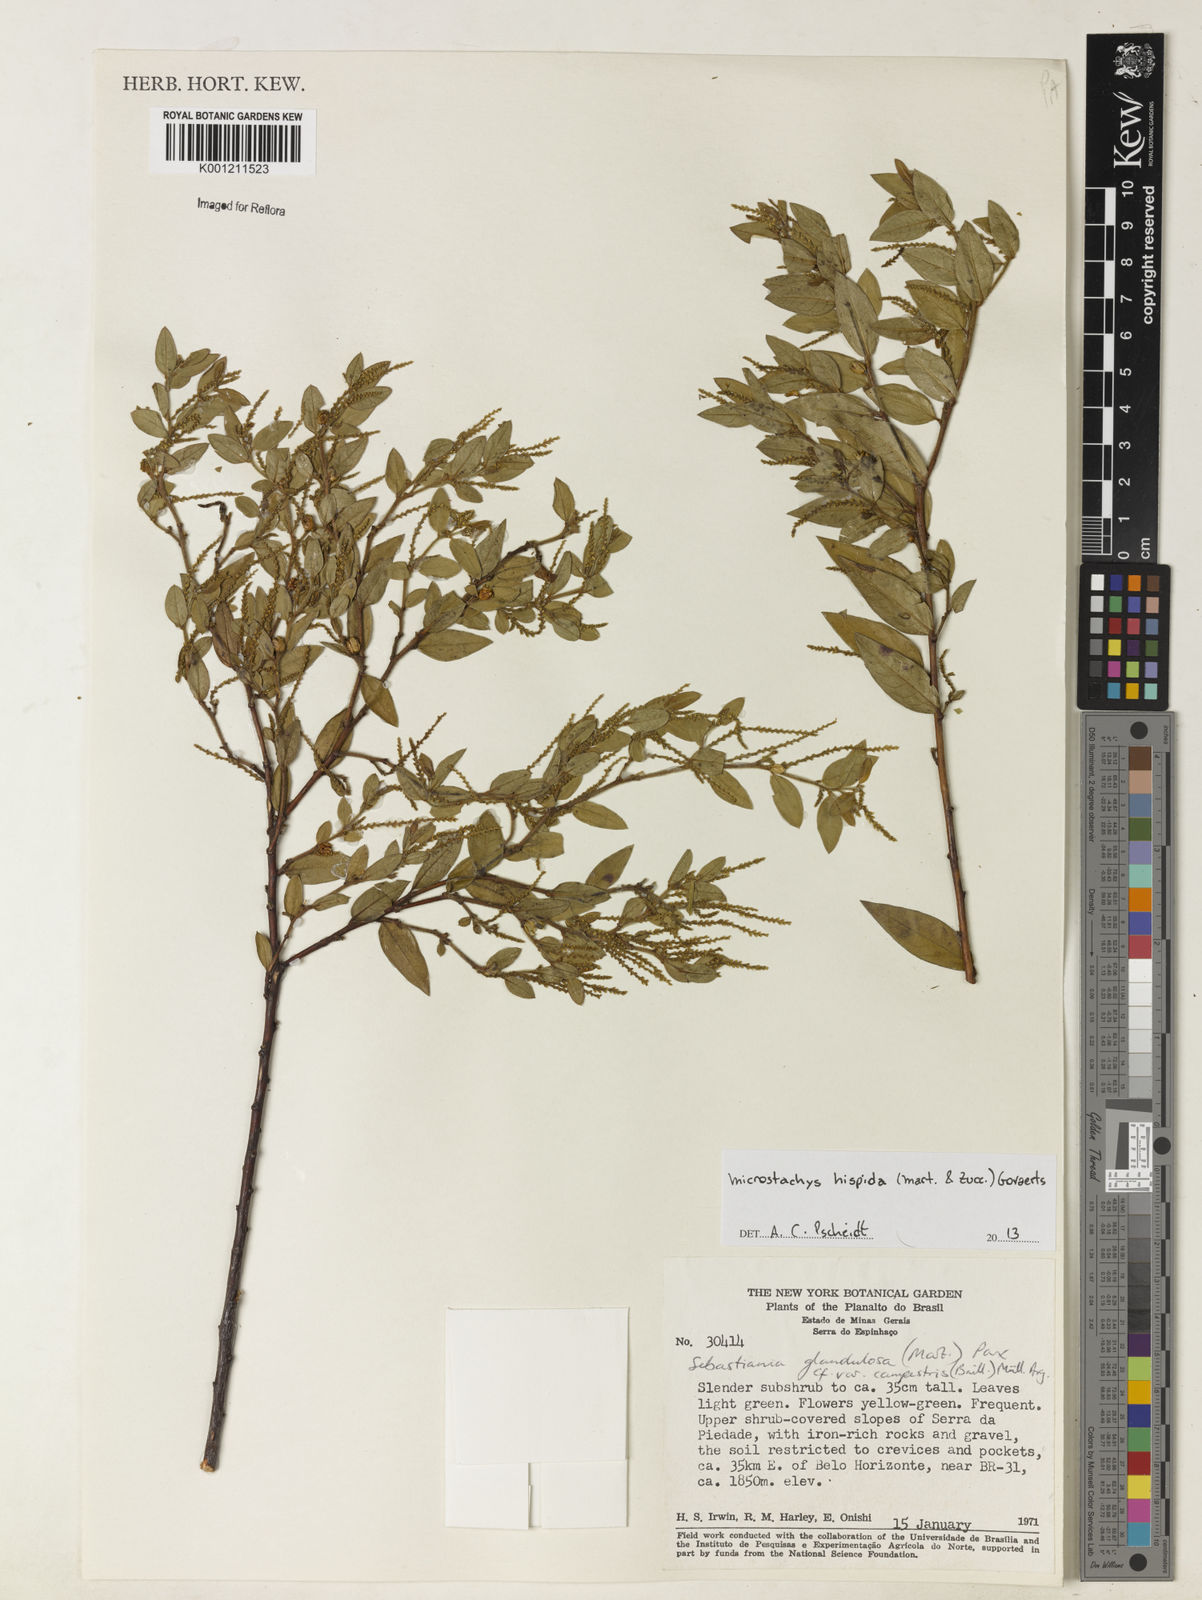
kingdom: Plantae
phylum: Tracheophyta
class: Magnoliopsida
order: Malpighiales
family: Euphorbiaceae
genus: Microstachys
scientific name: Microstachys hispida
